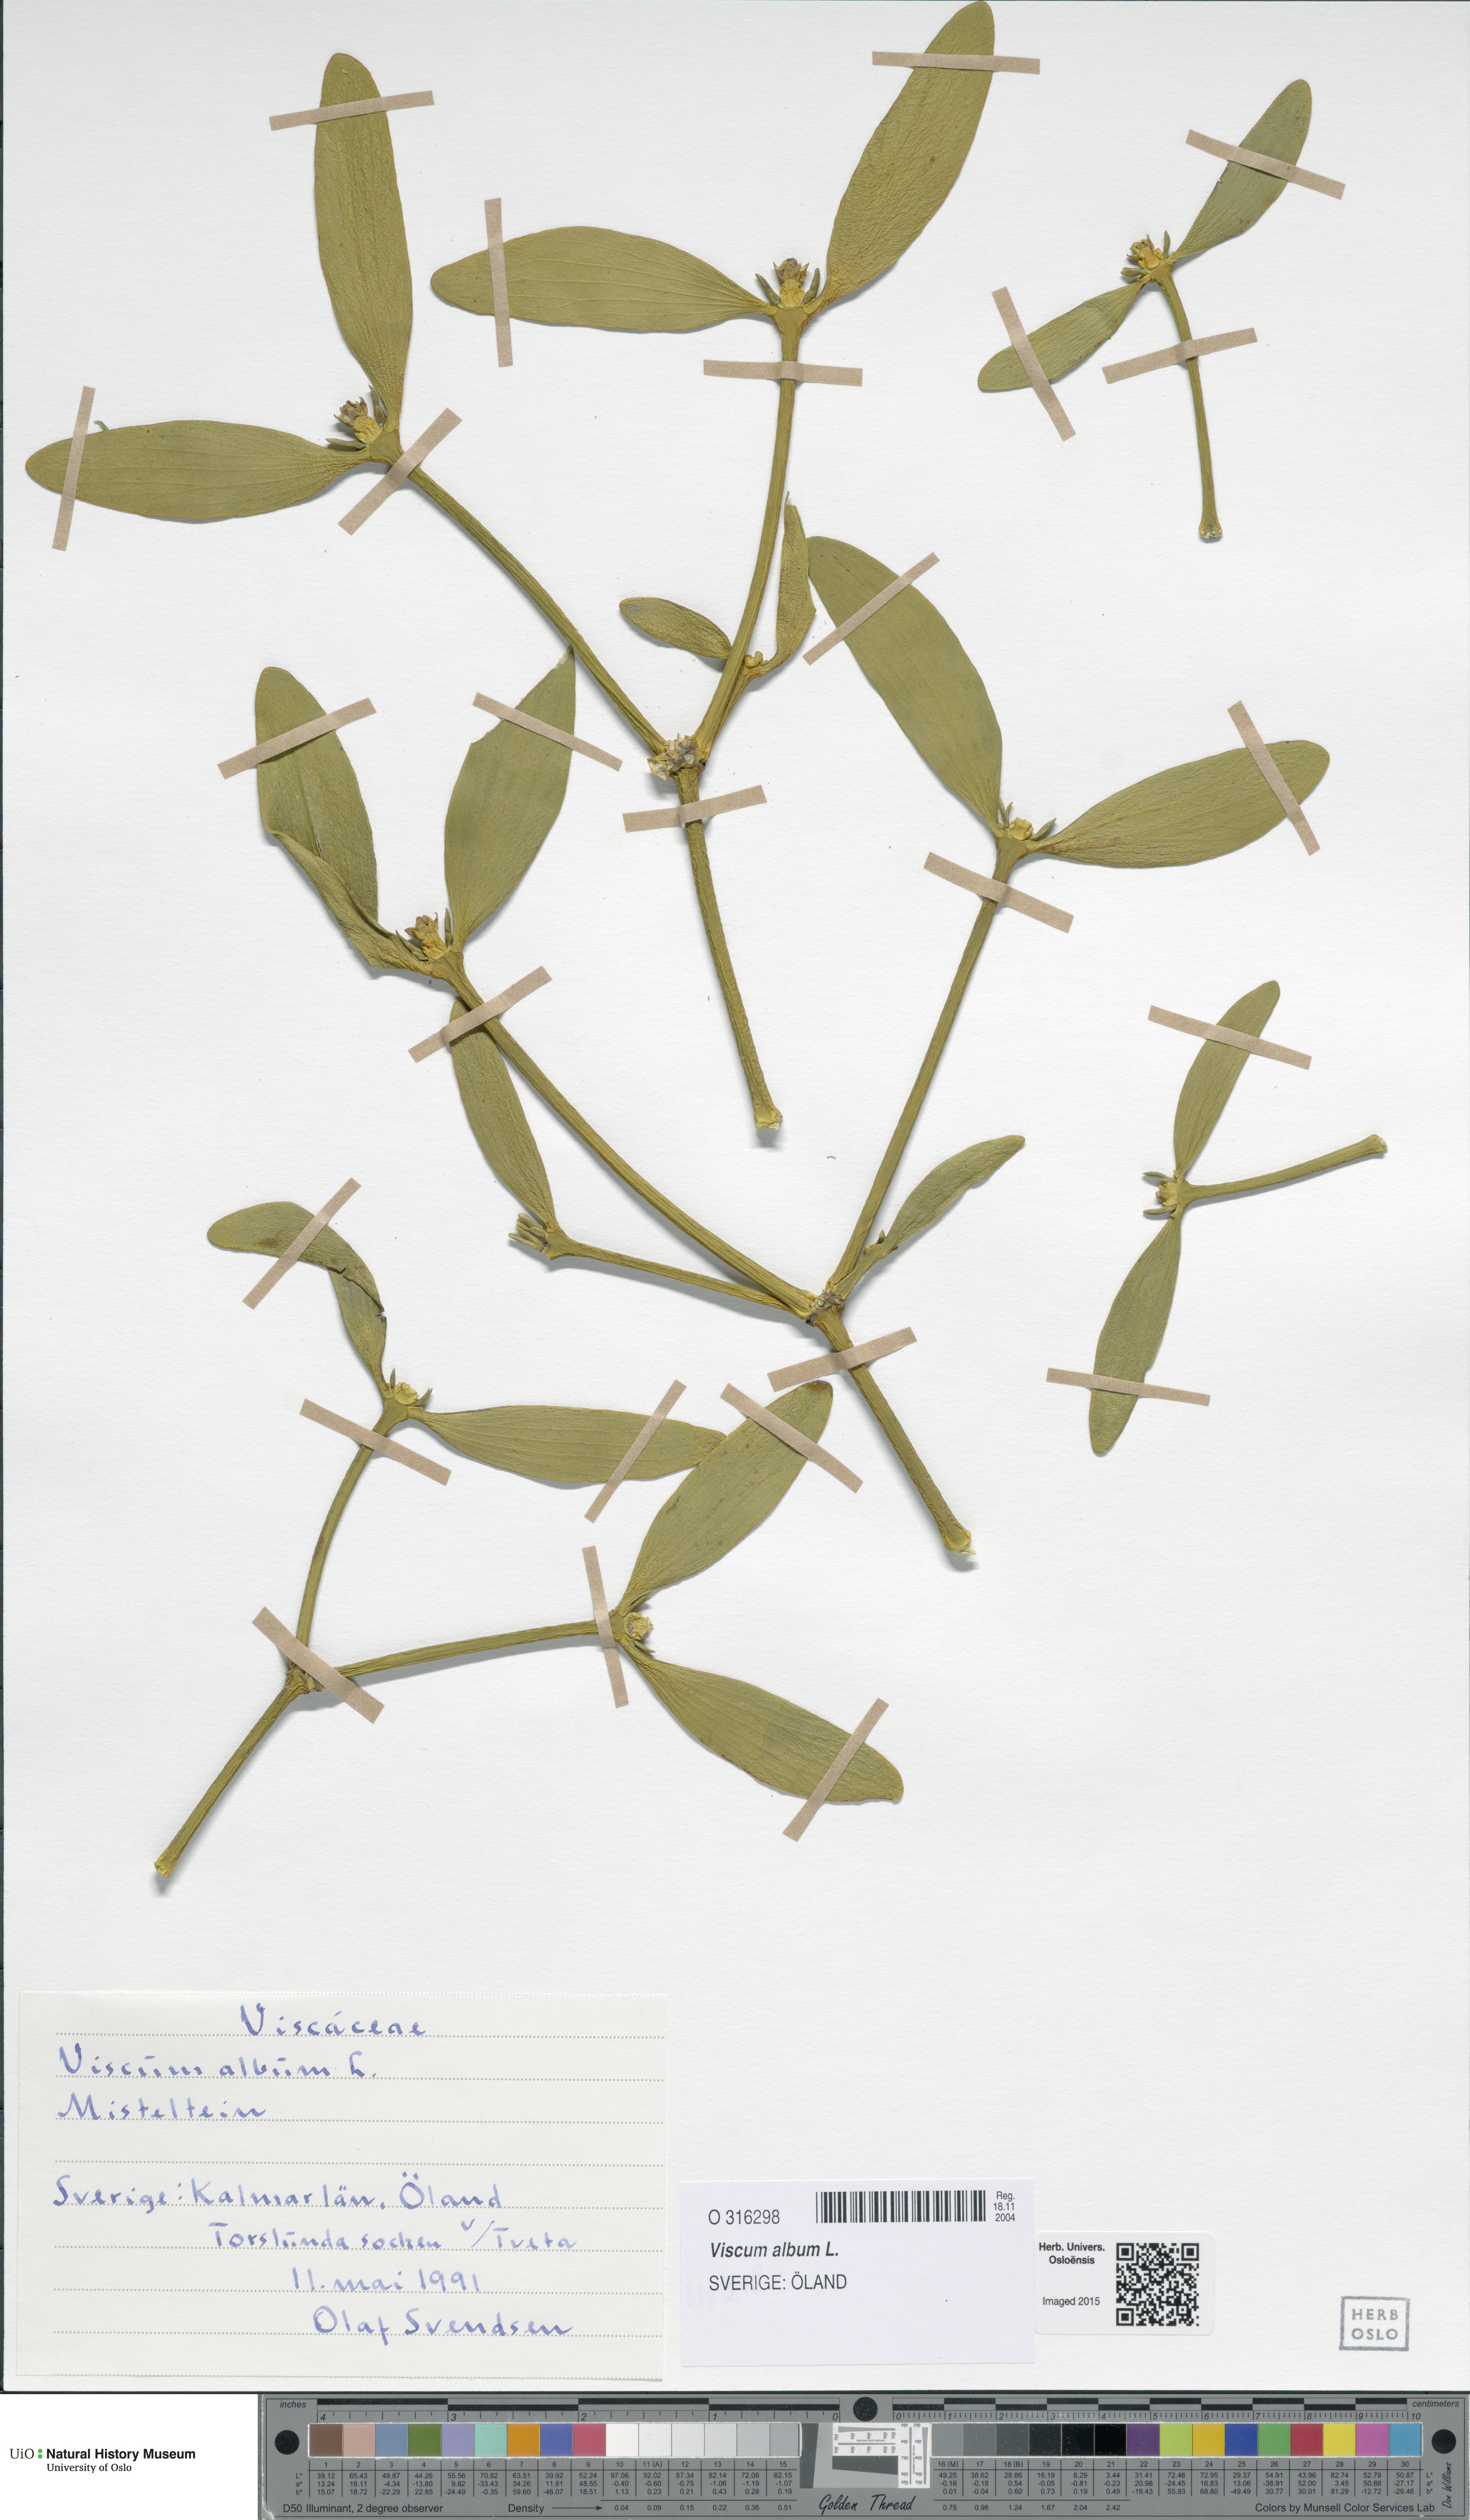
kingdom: Plantae
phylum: Tracheophyta
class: Magnoliopsida
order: Santalales
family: Viscaceae
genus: Viscum
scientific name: Viscum album
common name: Mistletoe
